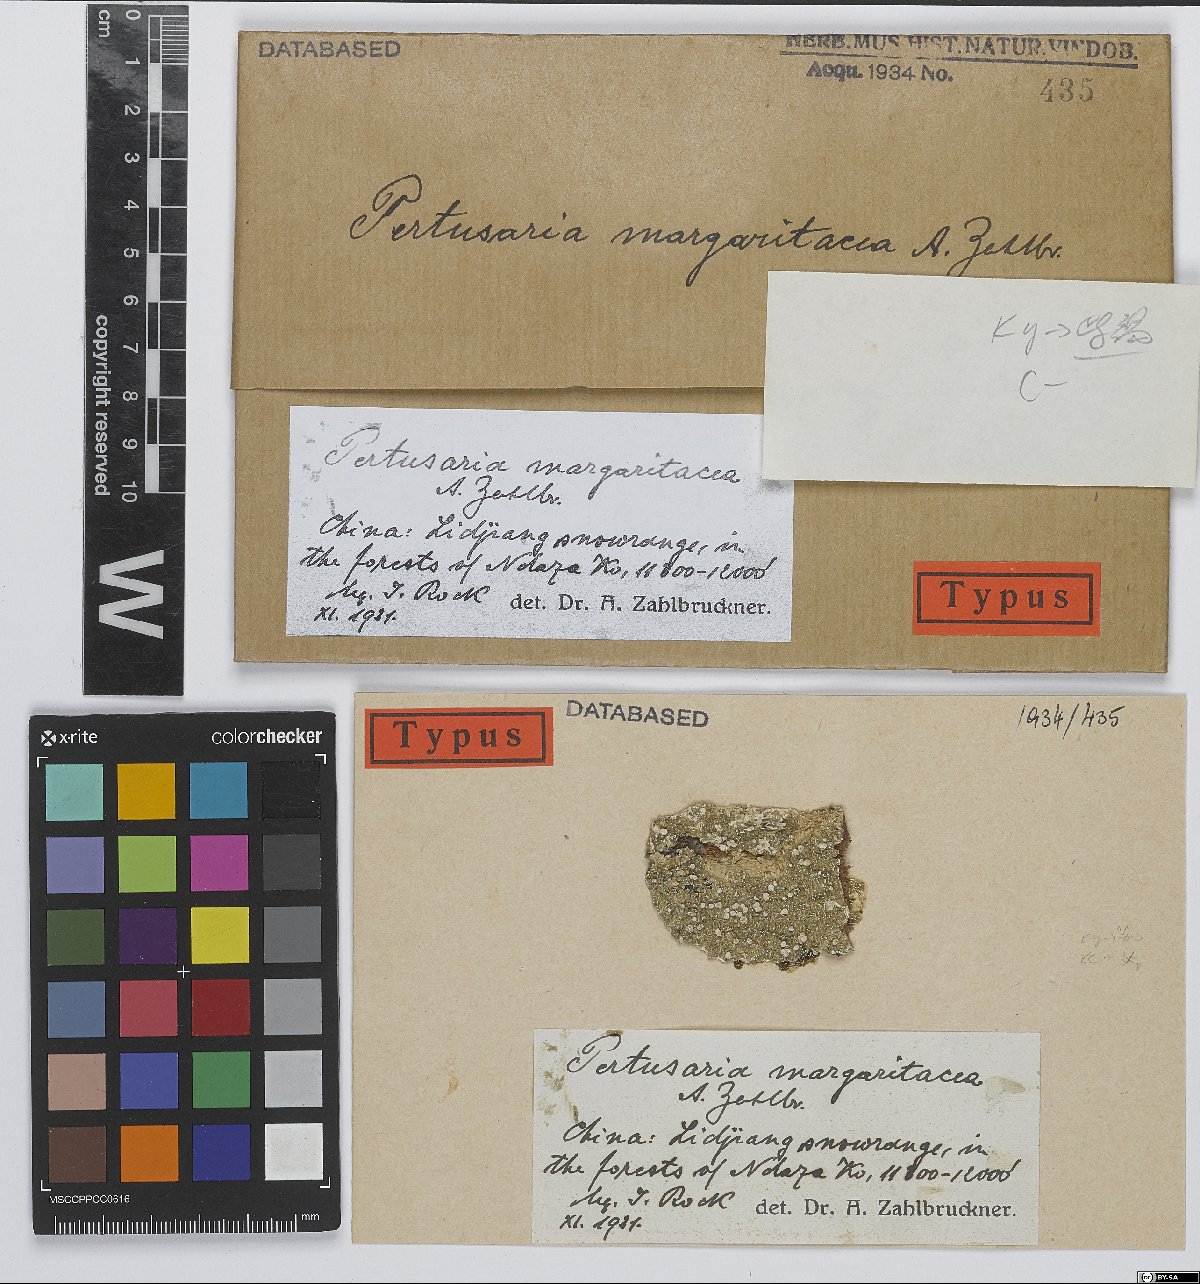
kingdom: Fungi
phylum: Ascomycota
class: Lecanoromycetes
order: Pertusariales
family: Pertusariaceae
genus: Pertusaria
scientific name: Pertusaria
